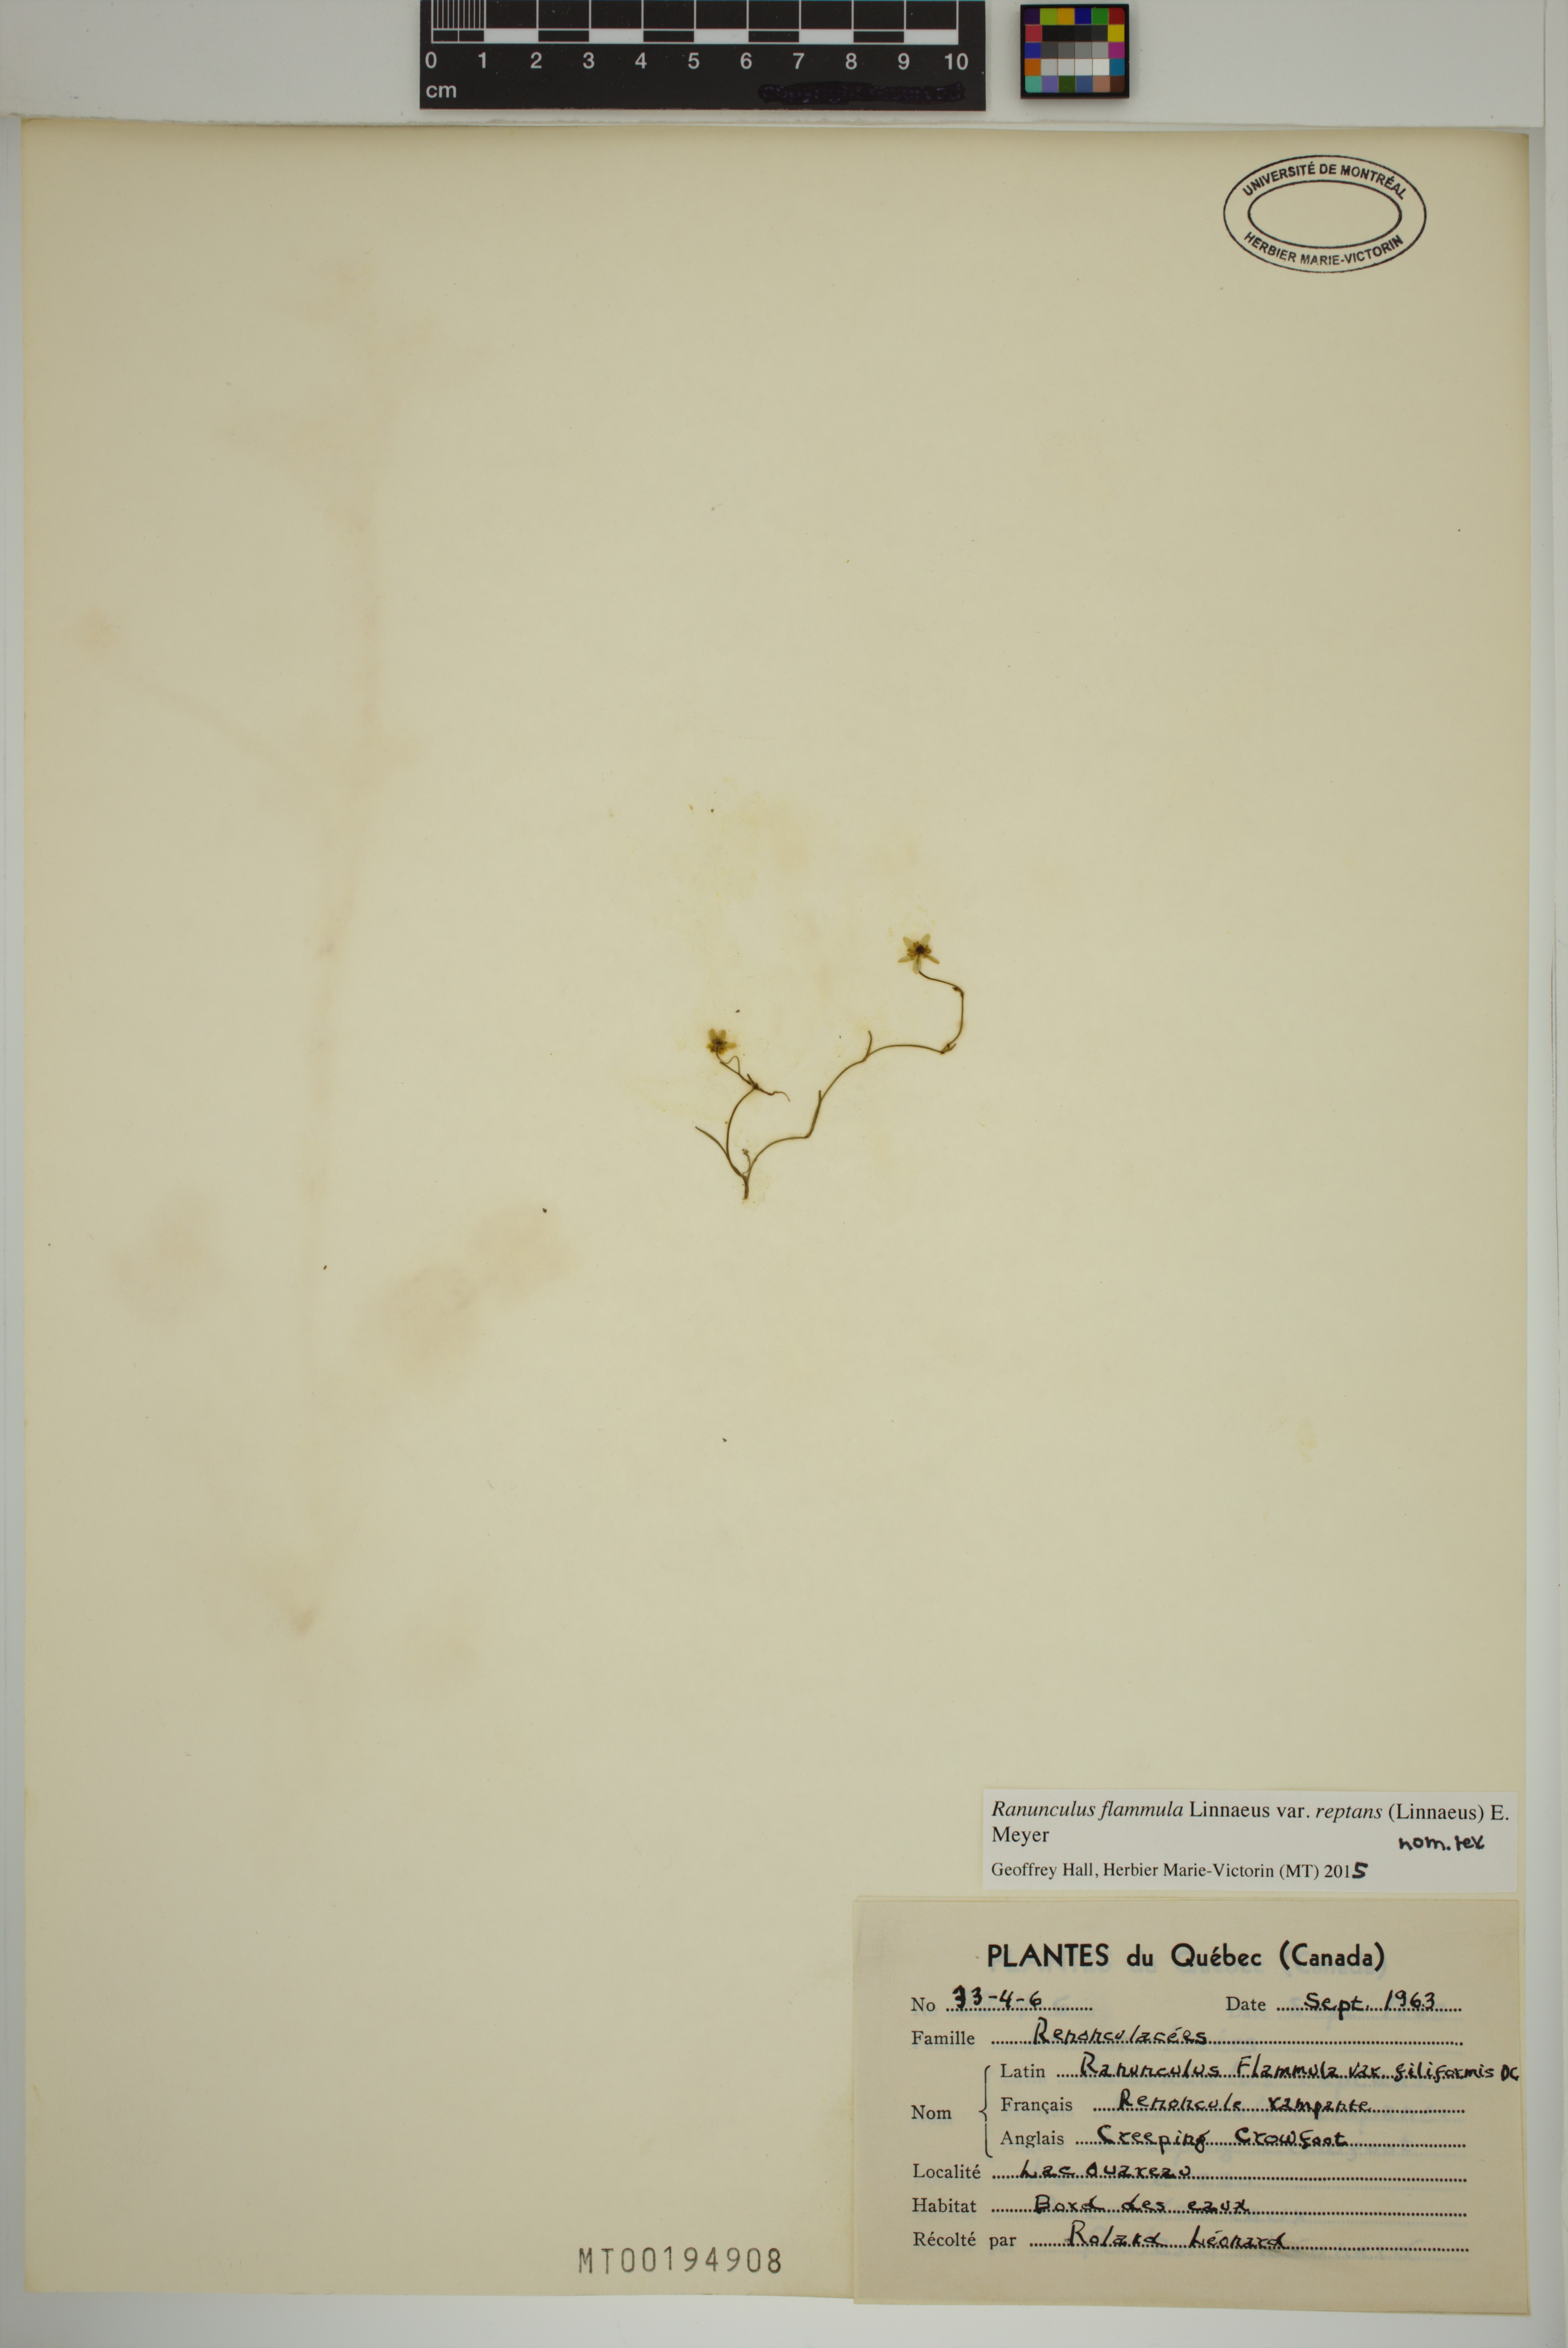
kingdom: Plantae
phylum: Tracheophyta
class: Magnoliopsida
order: Ranunculales
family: Ranunculaceae
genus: Ranunculus
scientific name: Ranunculus reptans
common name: Creeping spearwort
